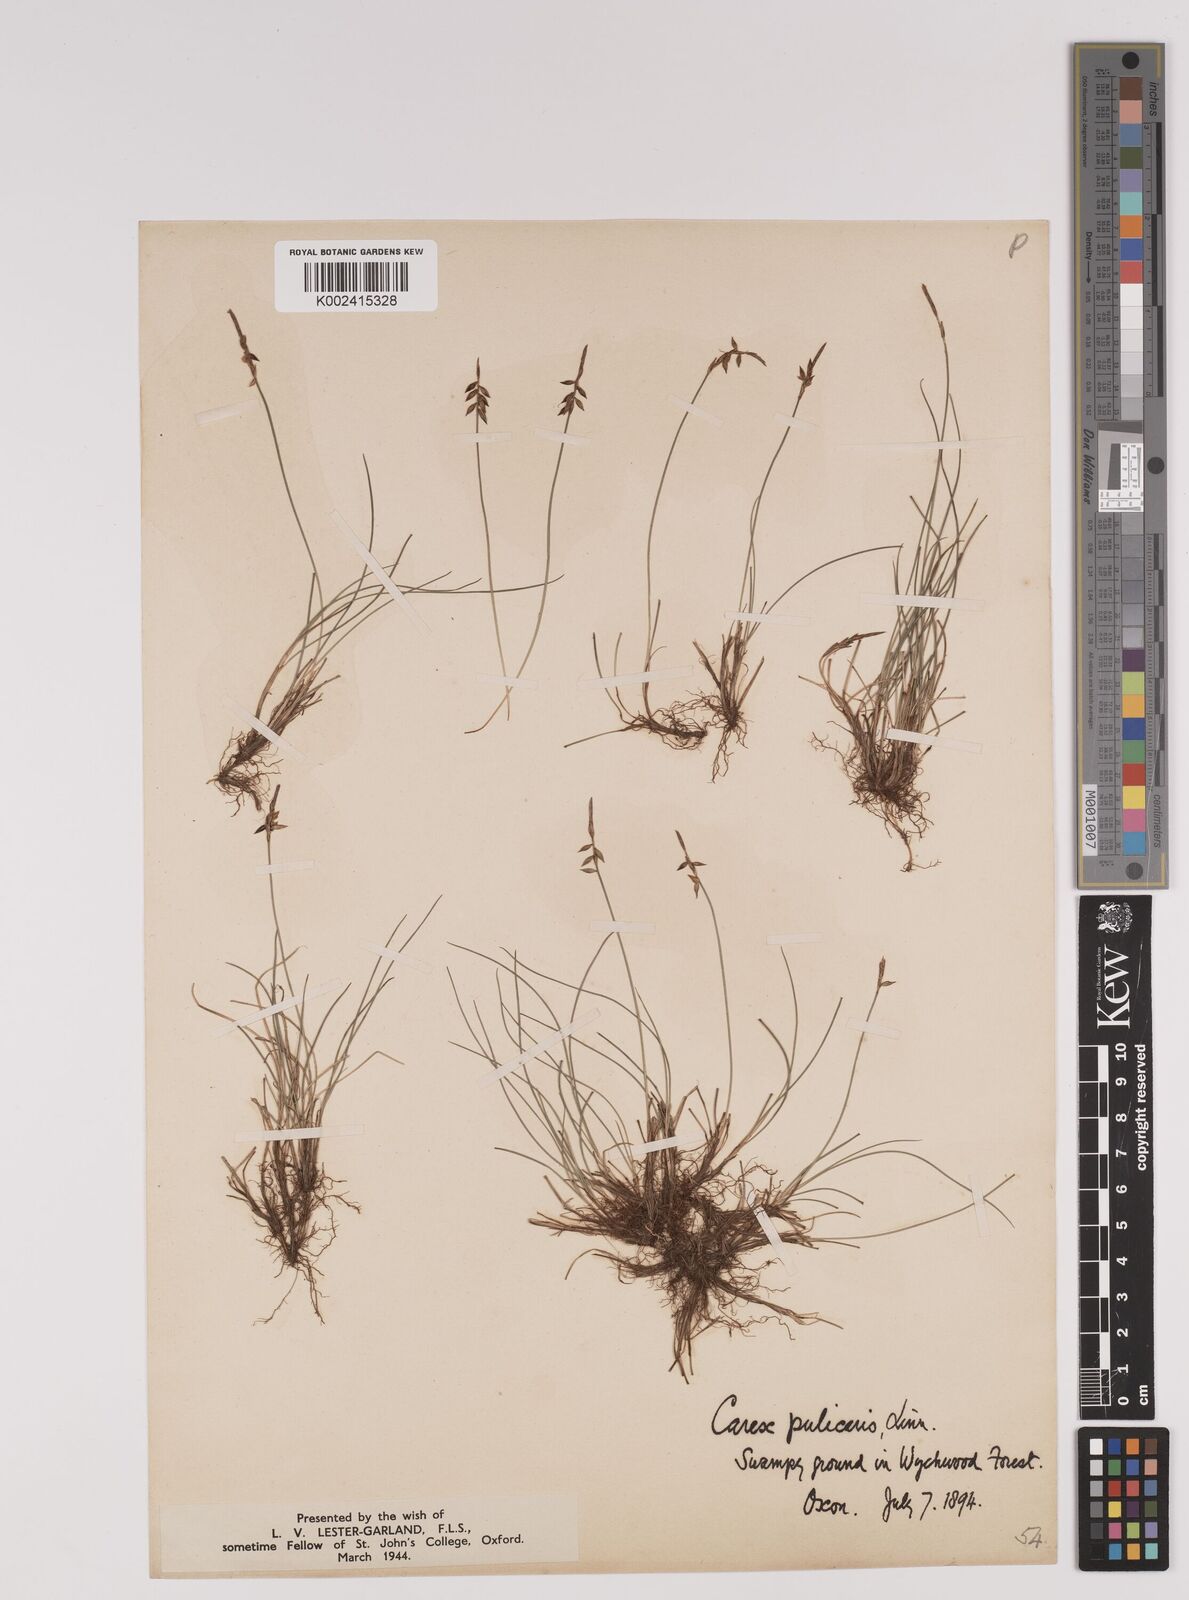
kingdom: Plantae
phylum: Tracheophyta
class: Liliopsida
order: Poales
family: Cyperaceae
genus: Carex
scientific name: Carex pulicaris
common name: Flea sedge
